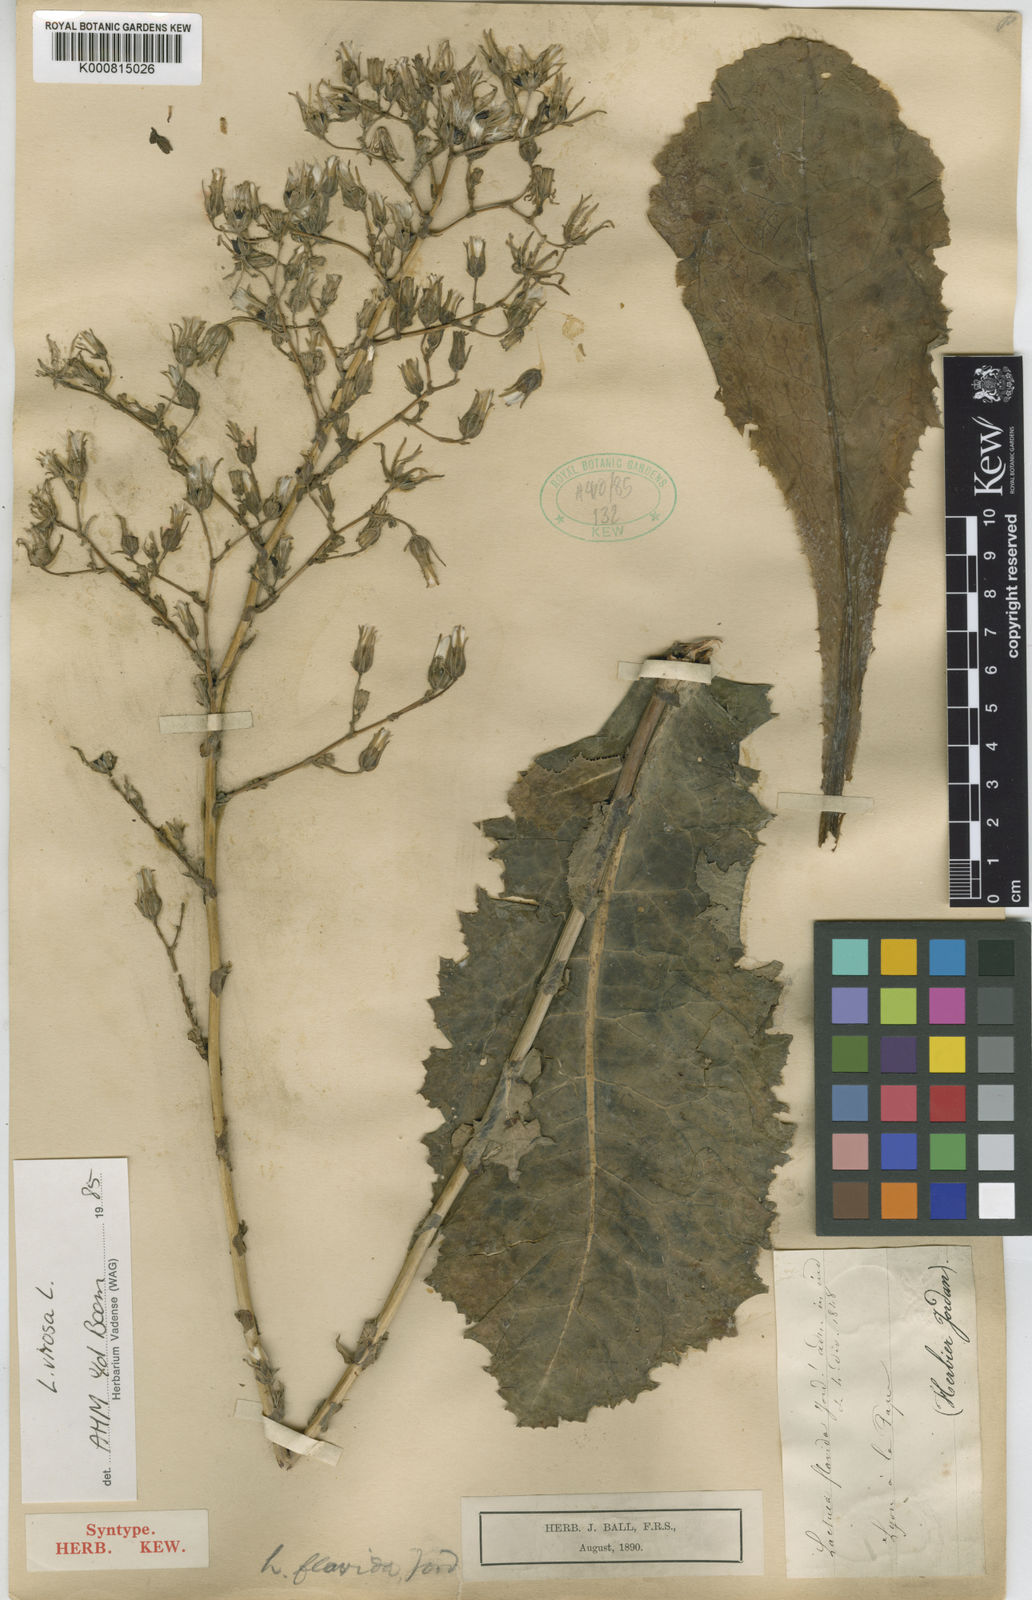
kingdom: Plantae
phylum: Tracheophyta
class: Magnoliopsida
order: Asterales
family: Asteraceae
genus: Lactuca
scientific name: Lactuca virosa
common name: Great lettuce
